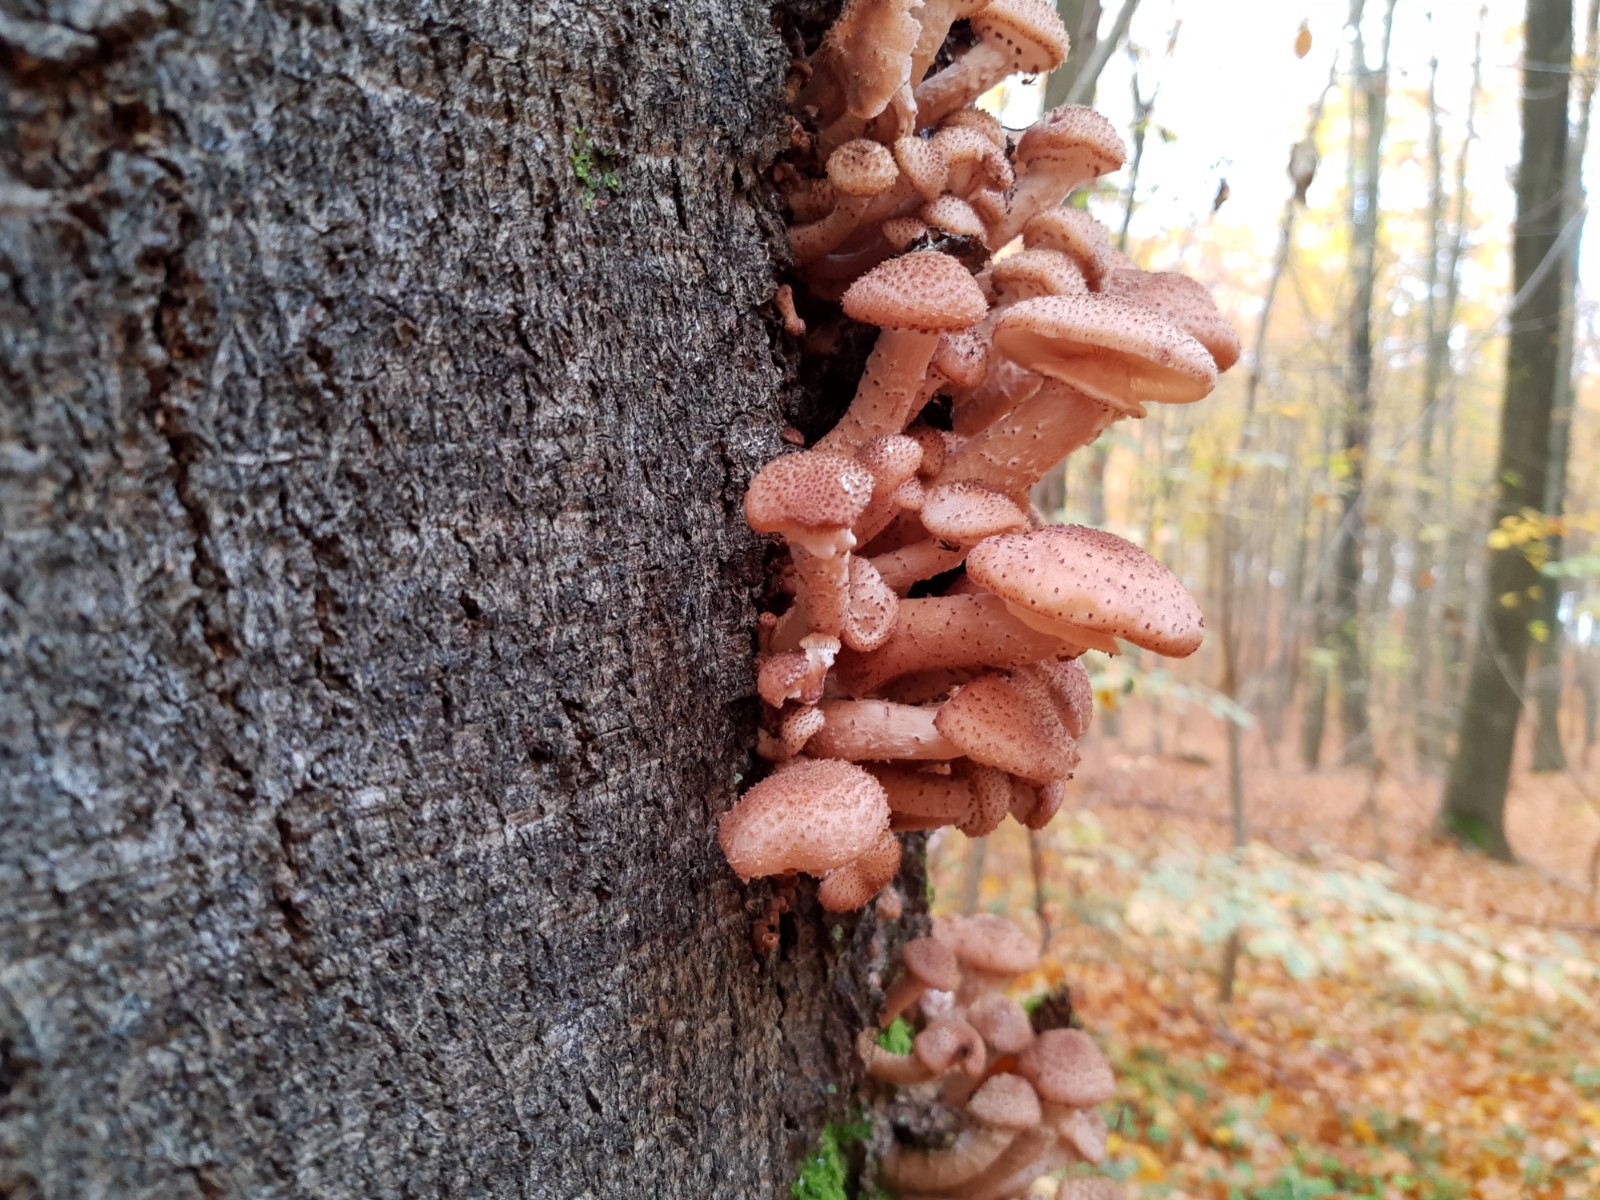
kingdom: Fungi
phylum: Basidiomycota
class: Agaricomycetes
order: Agaricales
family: Physalacriaceae
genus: Armillaria
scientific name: Armillaria ostoyae
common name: mørk honningsvamp
